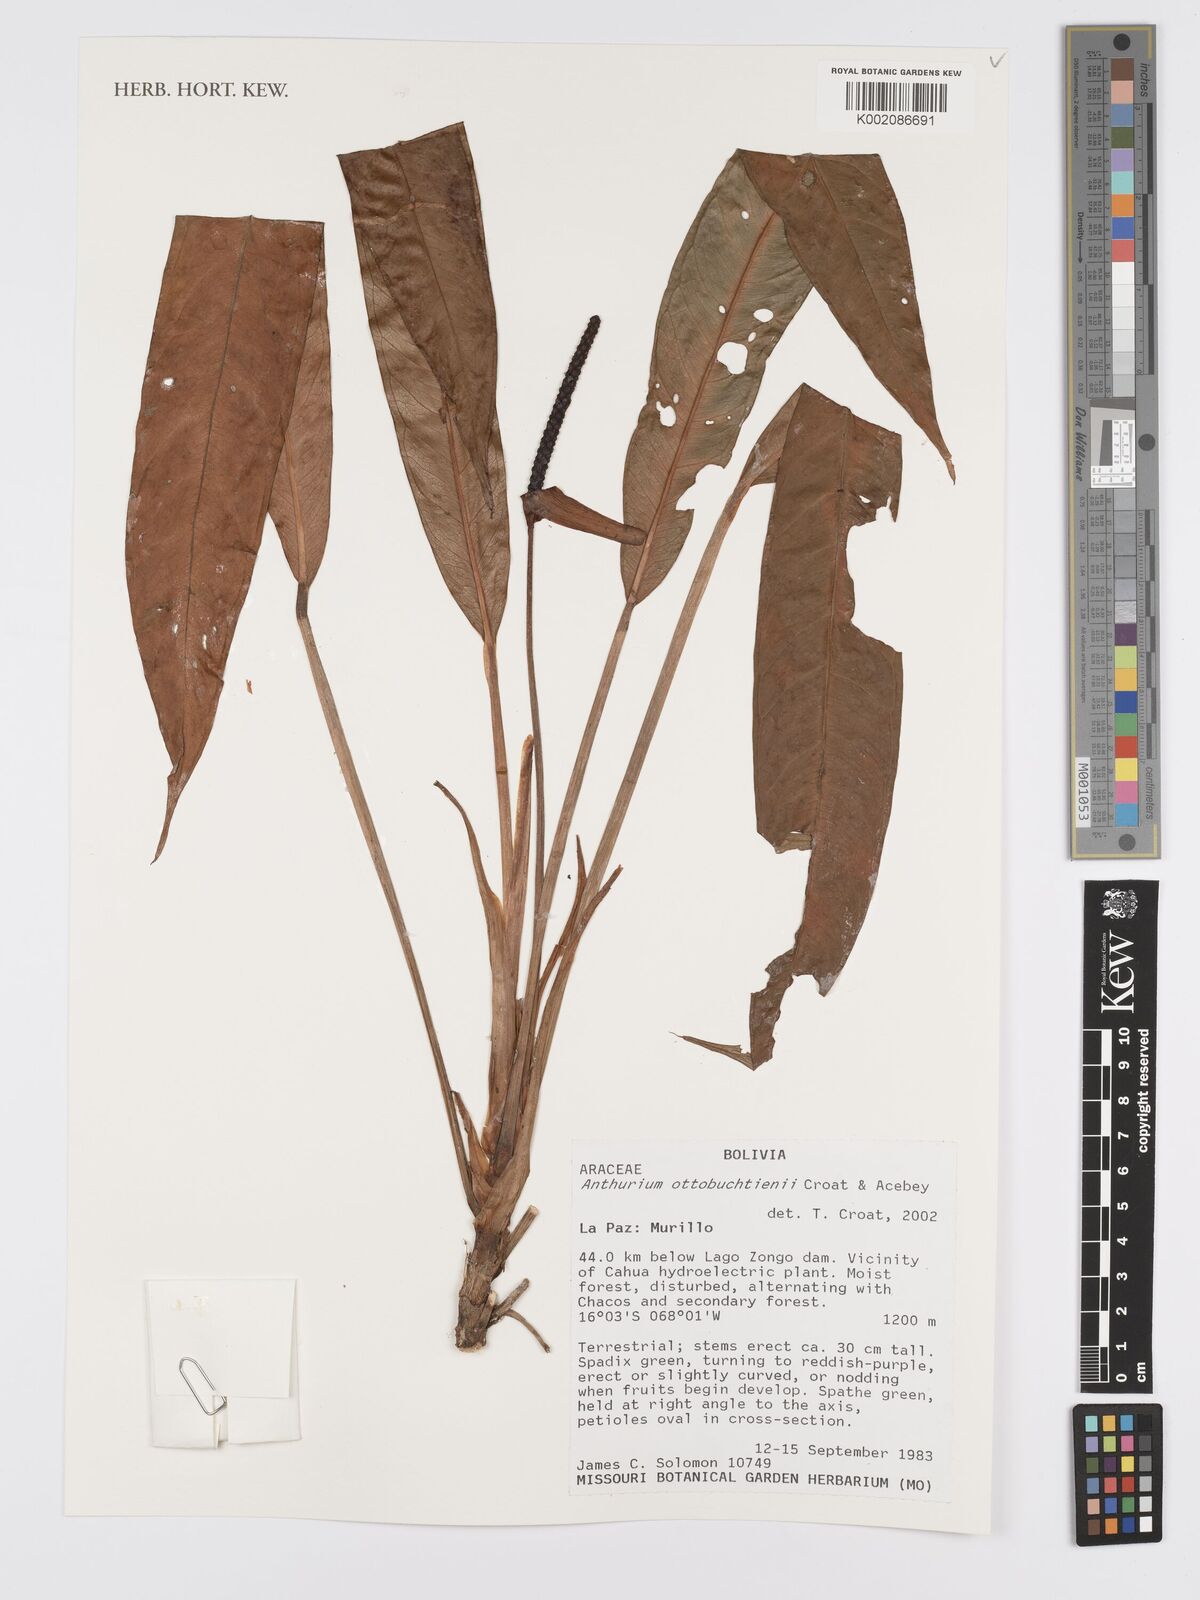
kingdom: Plantae
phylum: Tracheophyta
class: Liliopsida
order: Alismatales
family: Araceae
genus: Anthurium
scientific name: Anthurium ottobuchtienii
